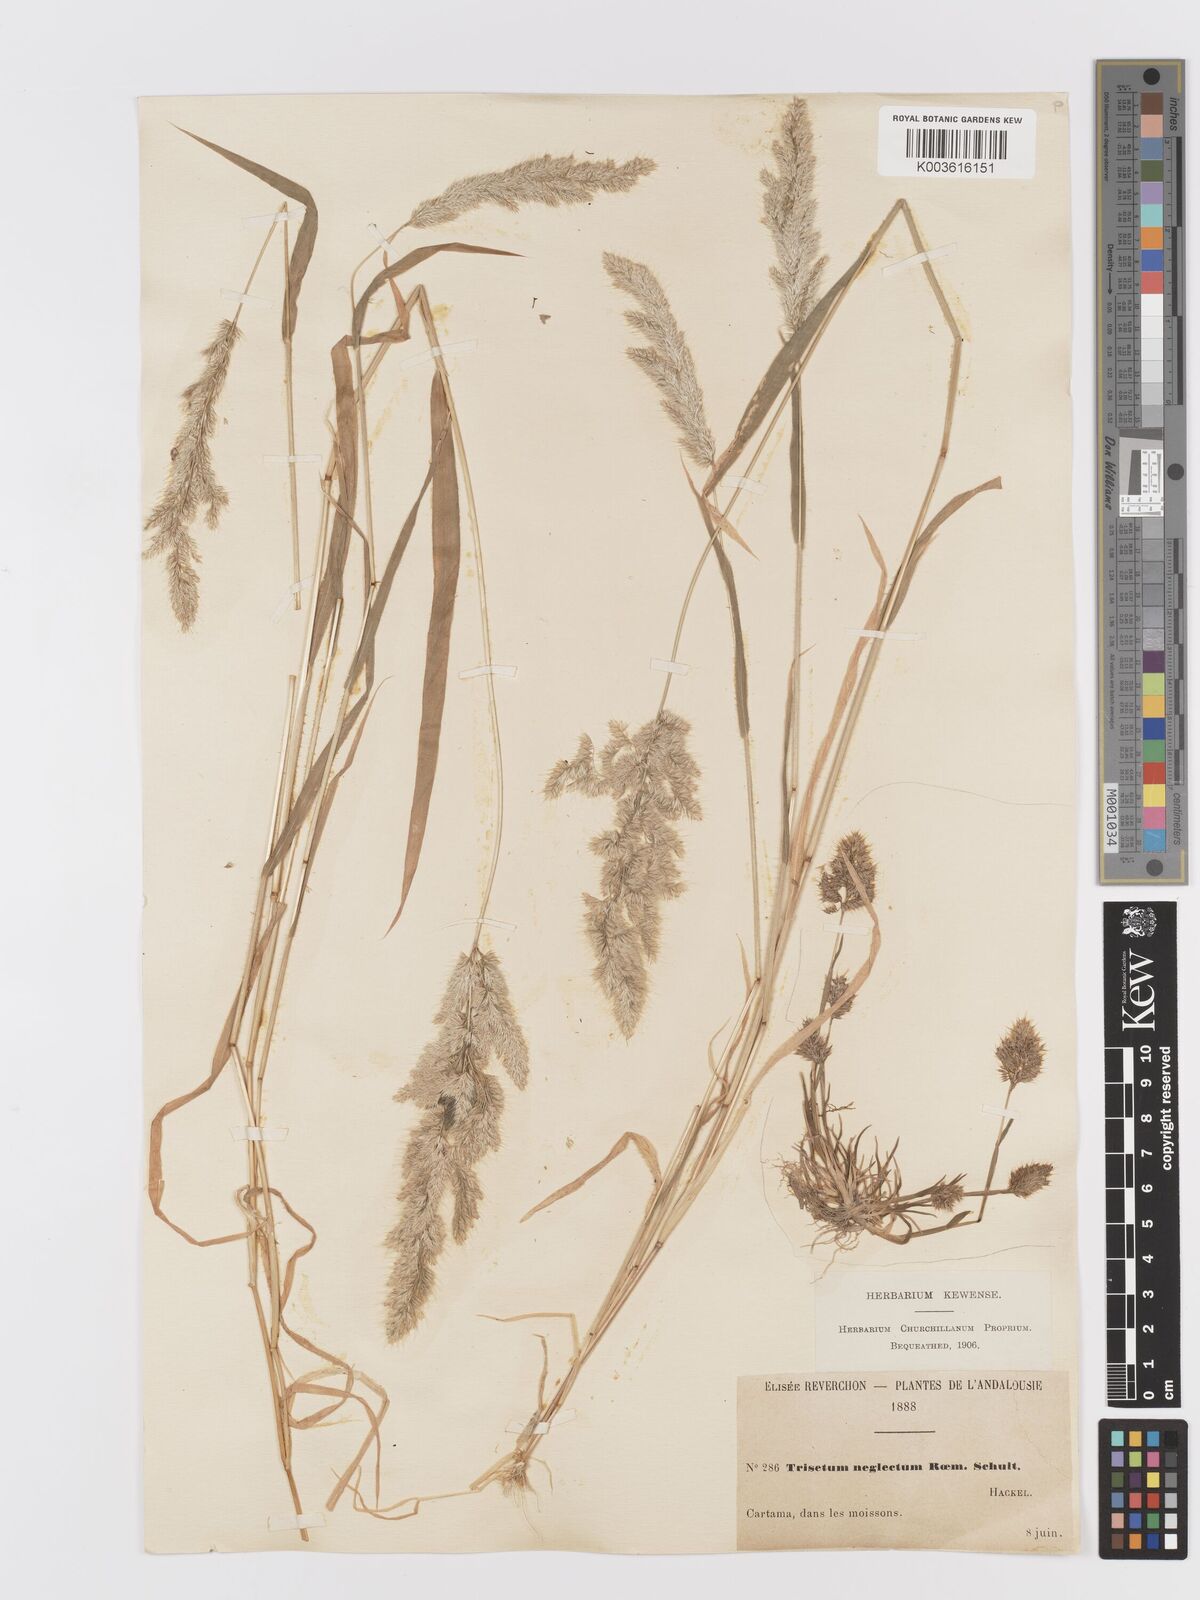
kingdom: Plantae
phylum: Tracheophyta
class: Liliopsida
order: Poales
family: Poaceae
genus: Trisetaria
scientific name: Trisetaria panicea
